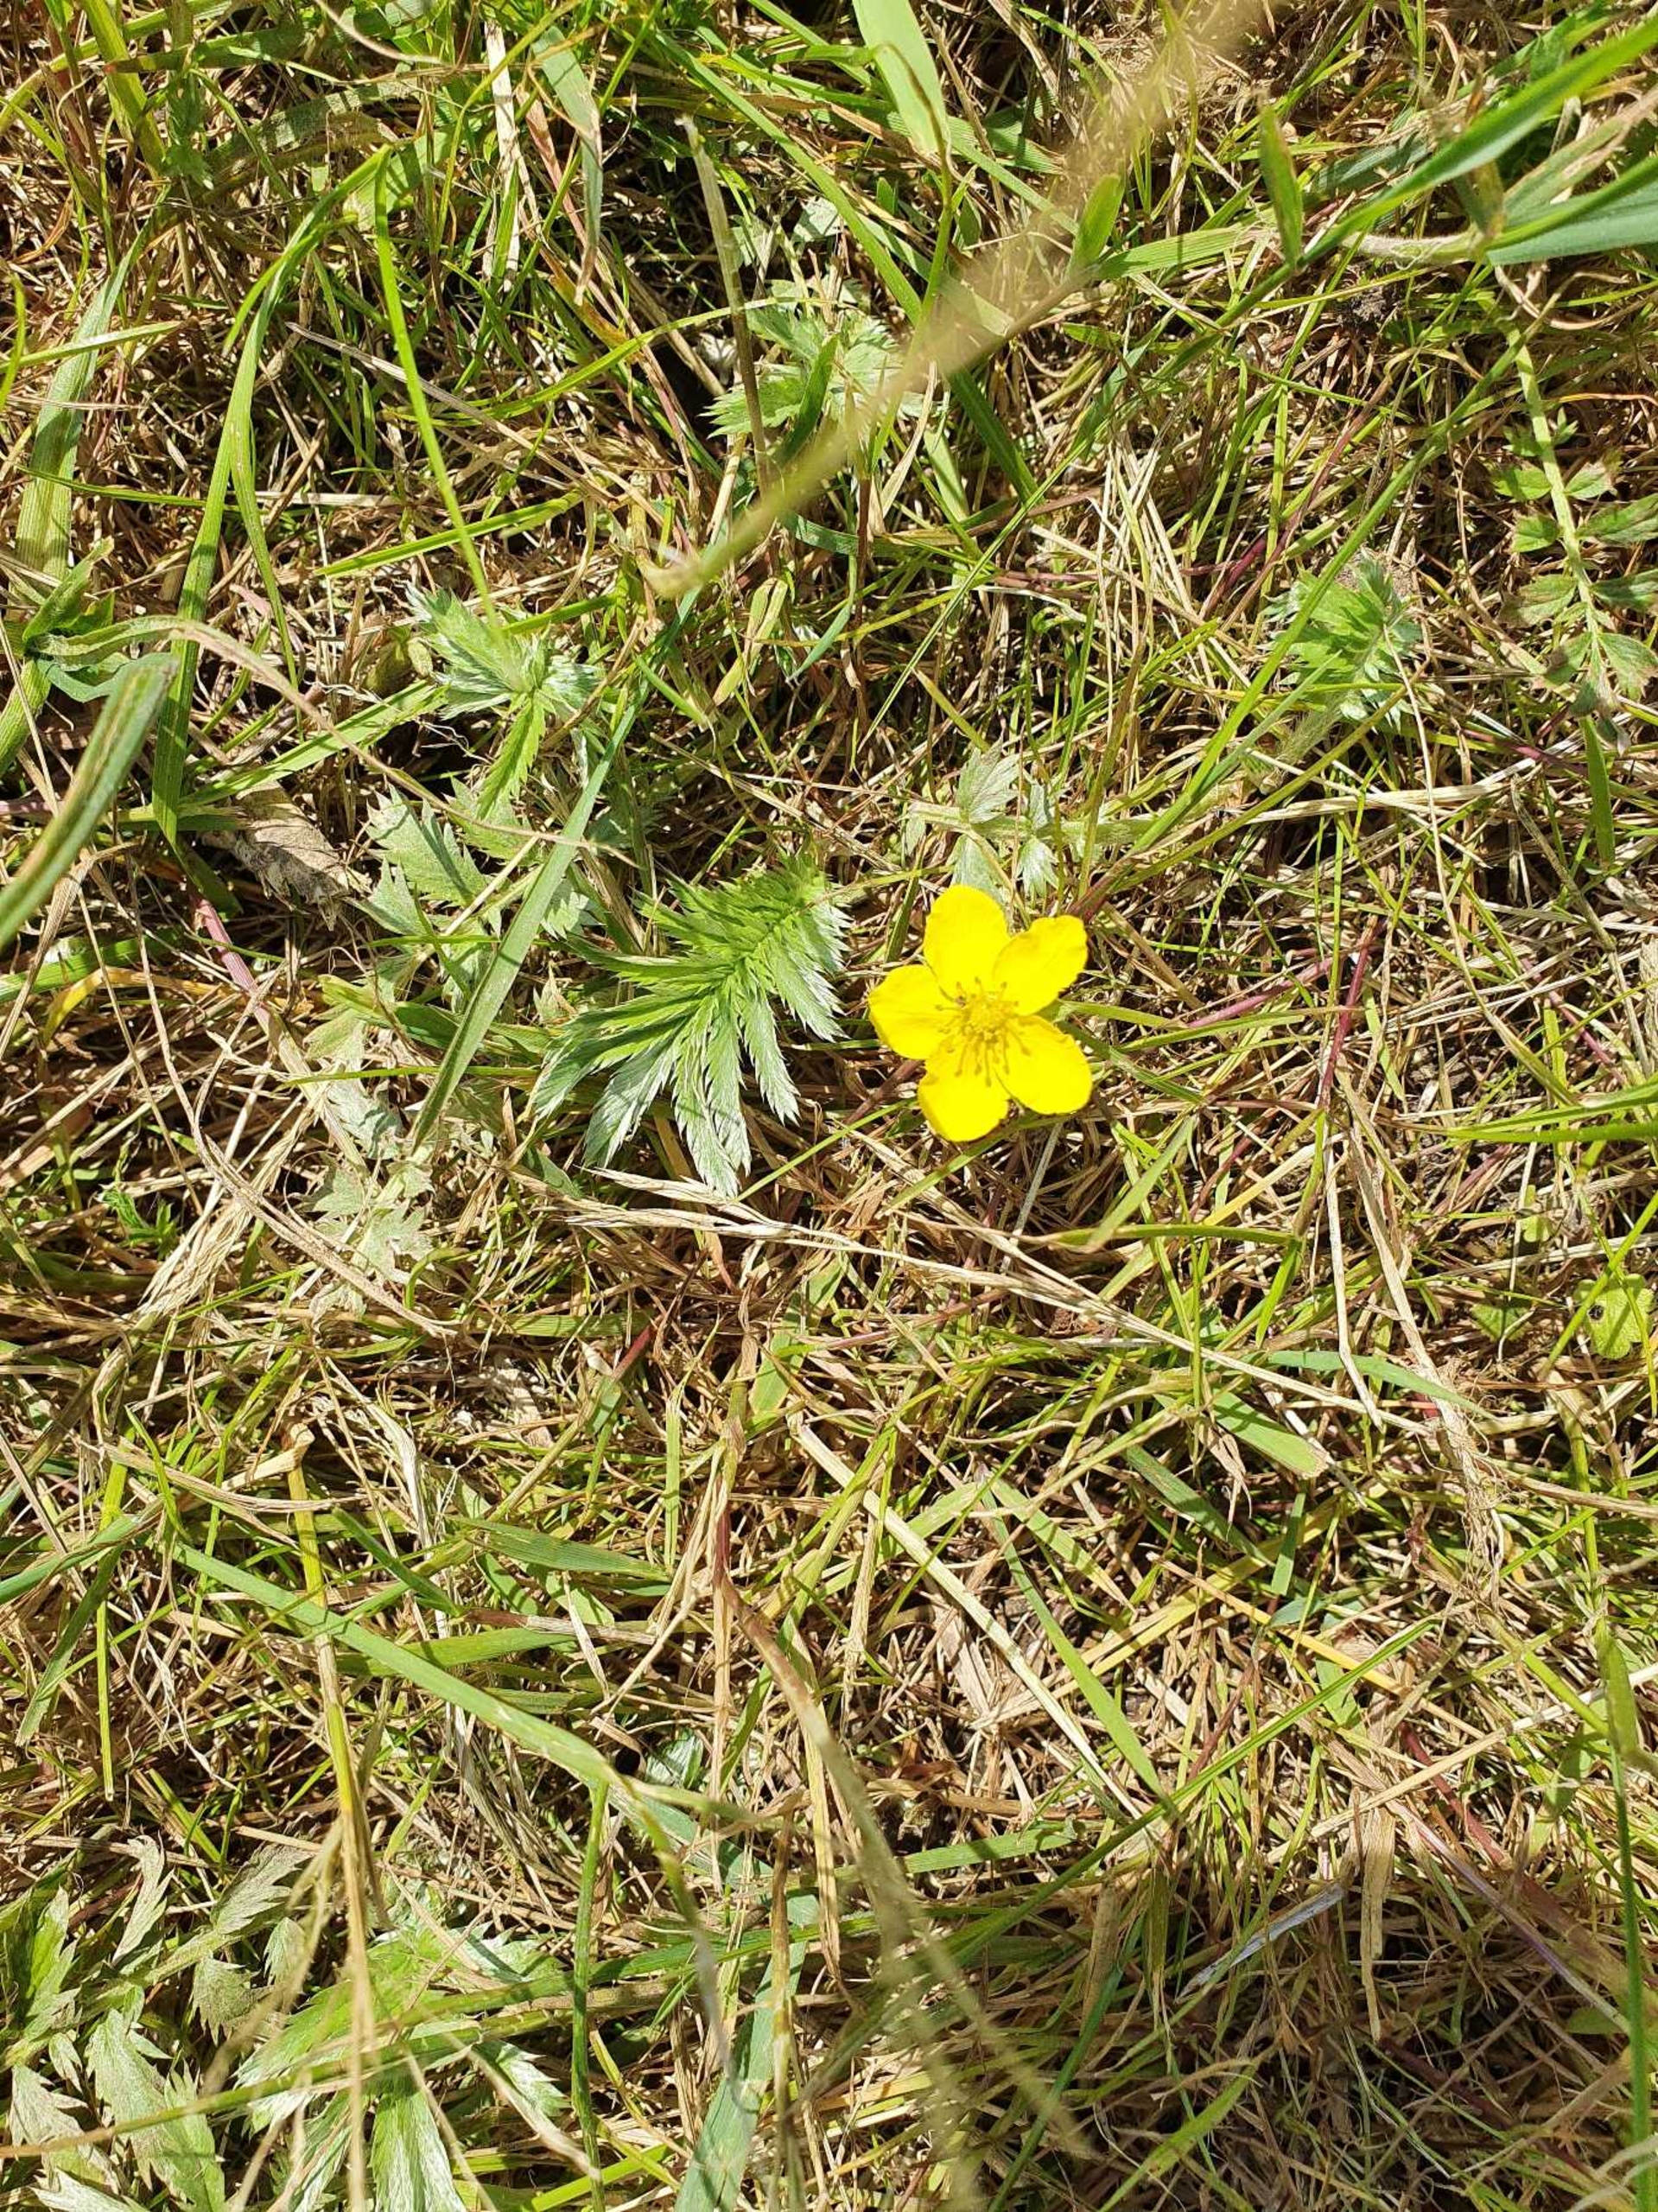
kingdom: Plantae
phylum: Tracheophyta
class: Magnoliopsida
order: Rosales
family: Rosaceae
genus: Argentina
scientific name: Argentina anserina
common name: Gåsepotentil
